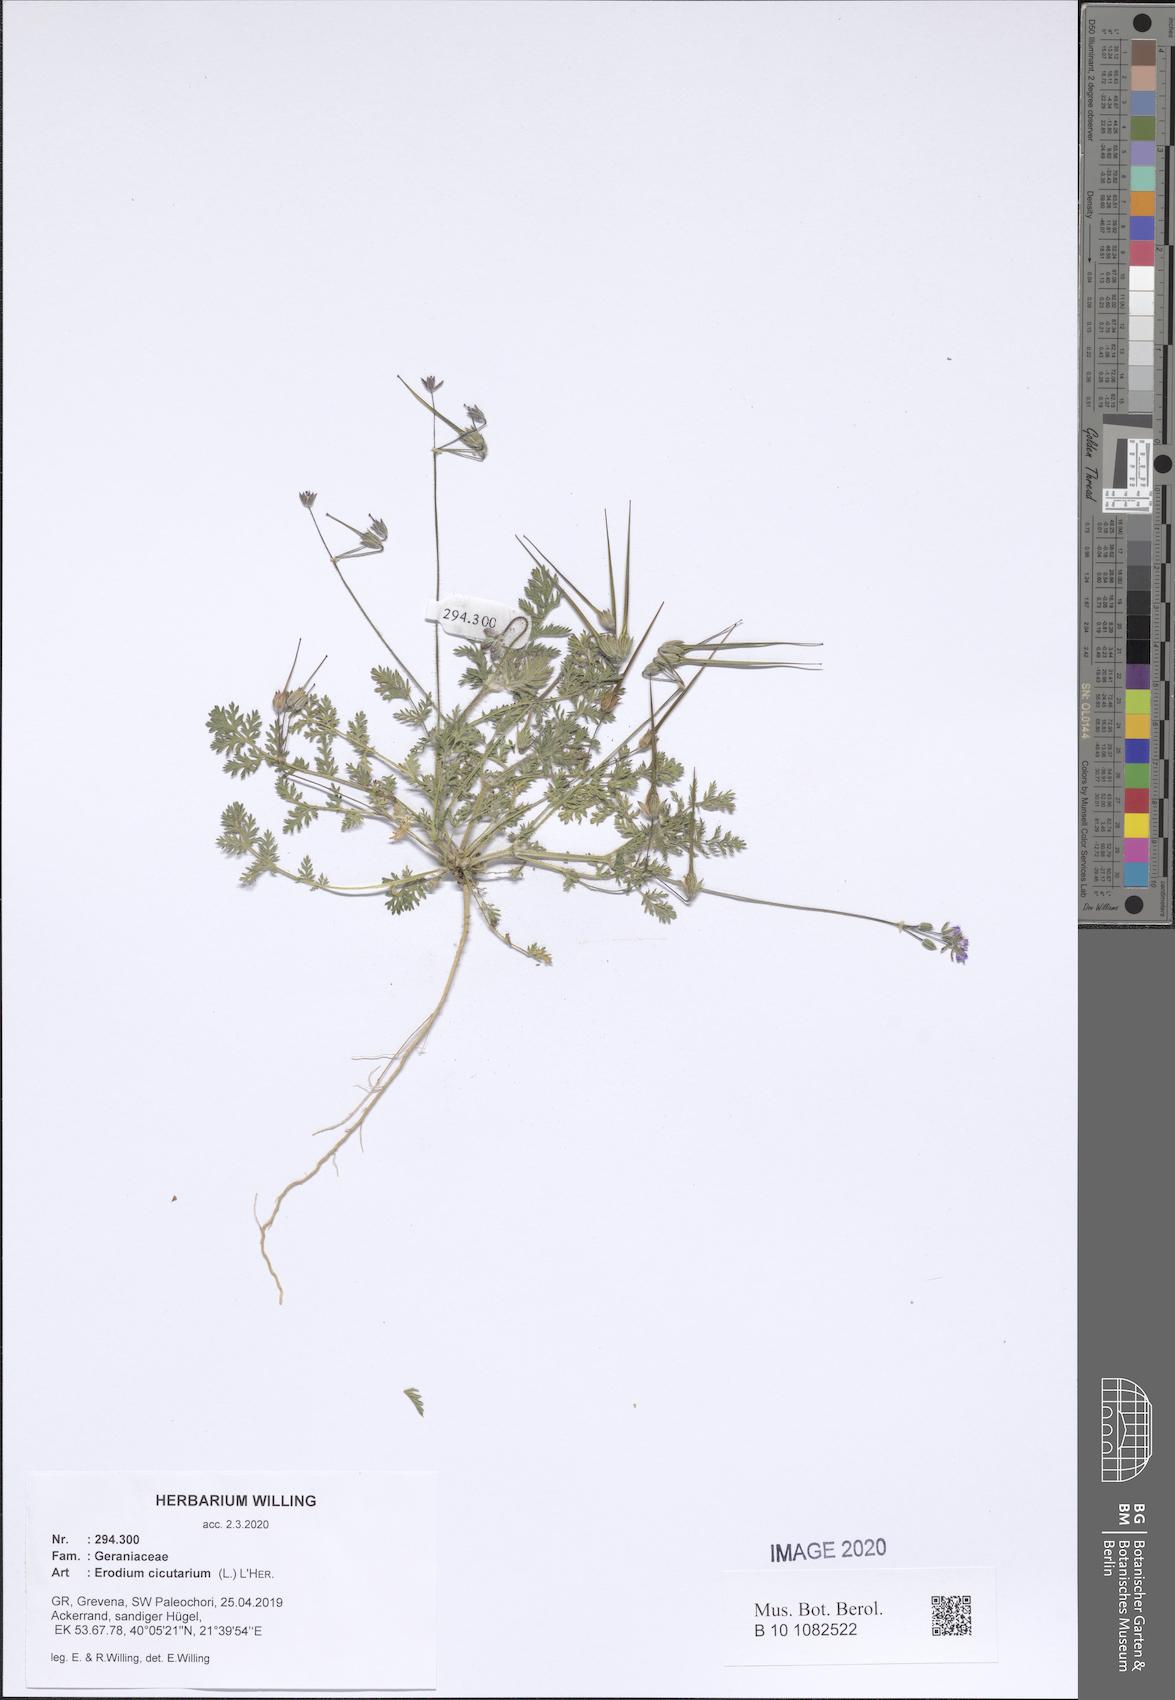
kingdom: Plantae
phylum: Tracheophyta
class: Magnoliopsida
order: Geraniales
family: Geraniaceae
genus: Erodium
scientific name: Erodium cicutarium
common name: Common stork's-bill
